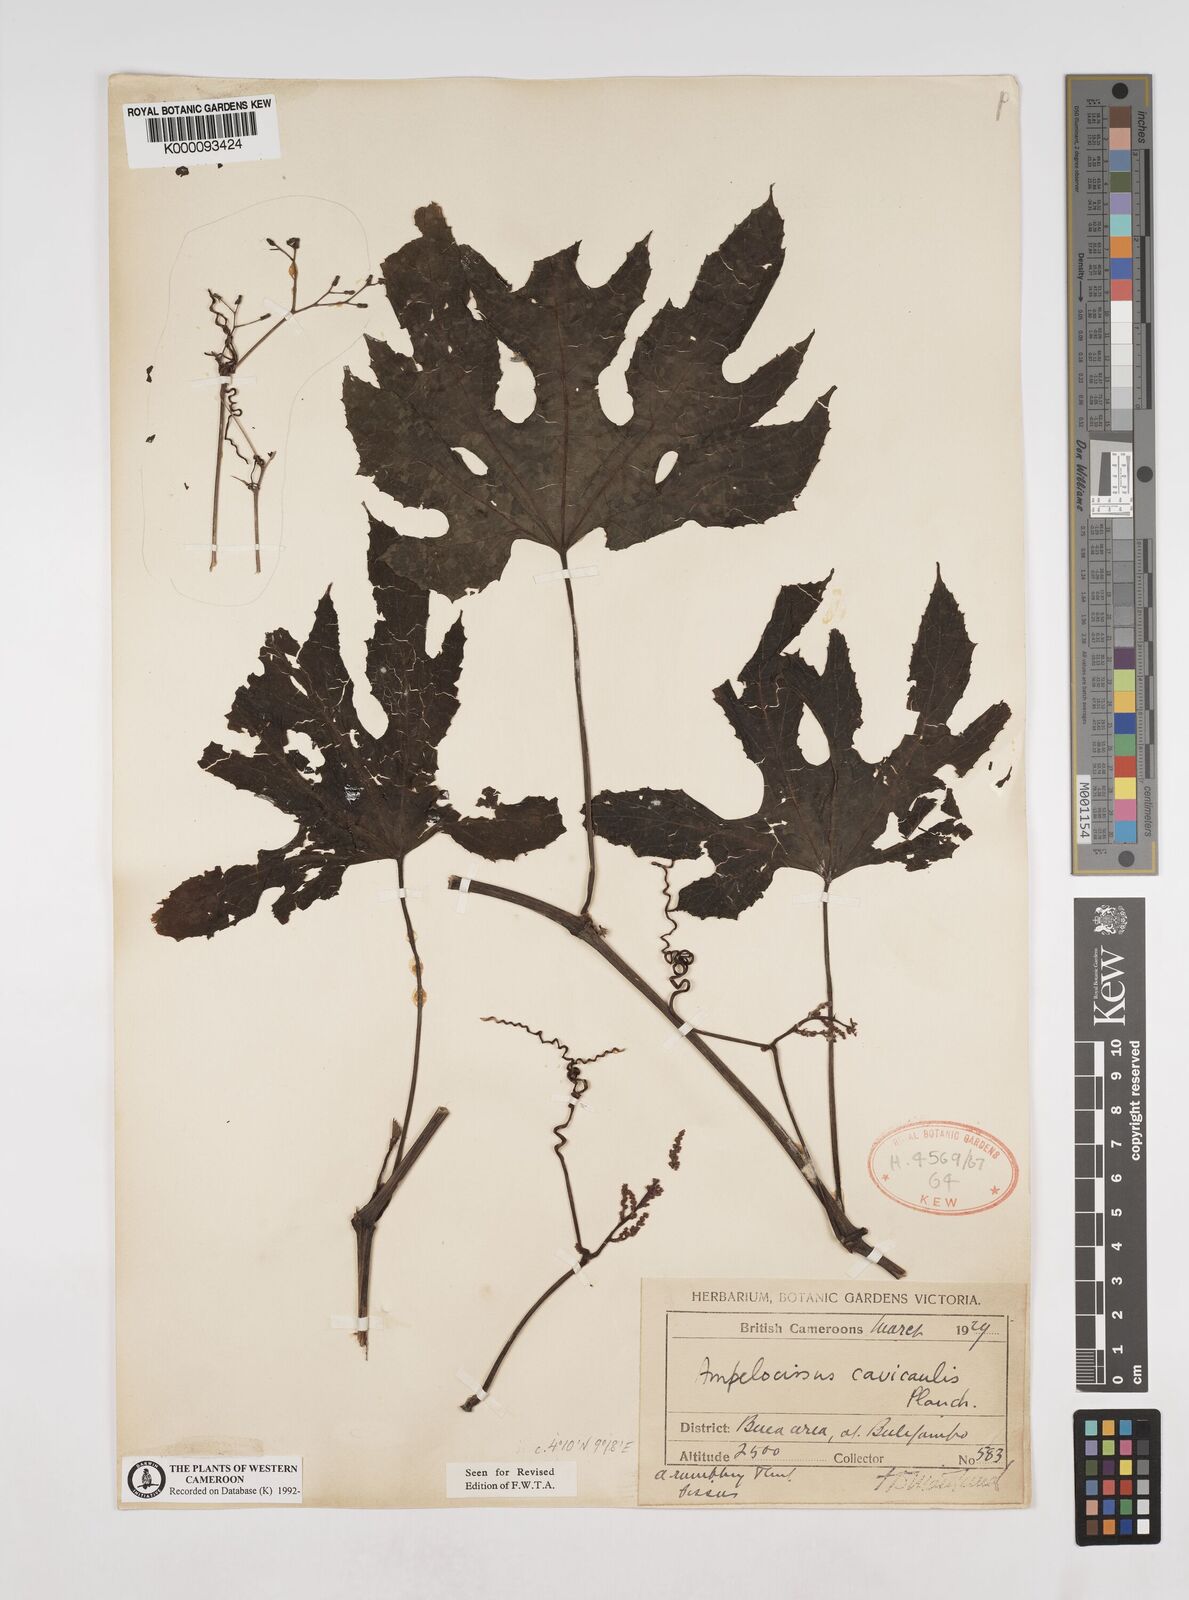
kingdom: Plantae
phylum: Tracheophyta
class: Magnoliopsida
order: Vitales
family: Vitaceae
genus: Ampelocissus
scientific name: Ampelocissus abyssinica
